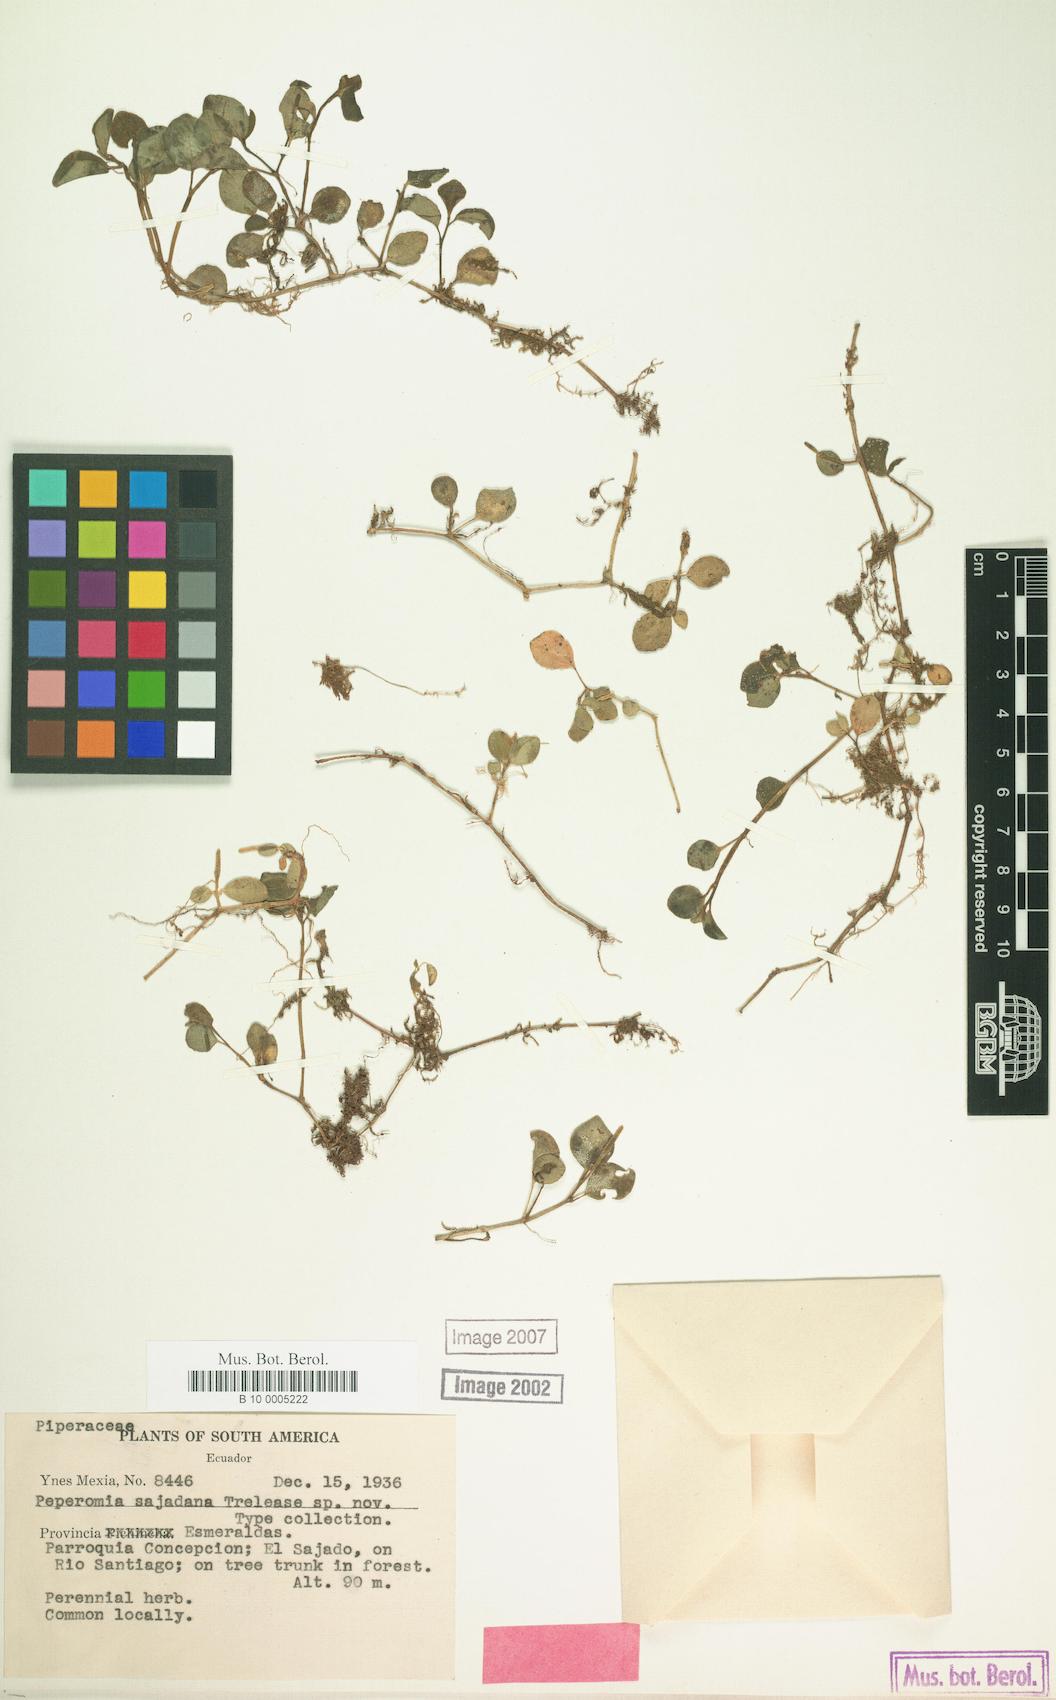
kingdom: Plantae
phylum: Tracheophyta
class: Magnoliopsida
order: Piperales
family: Piperaceae
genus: Peperomia
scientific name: Peperomia mariannensis
